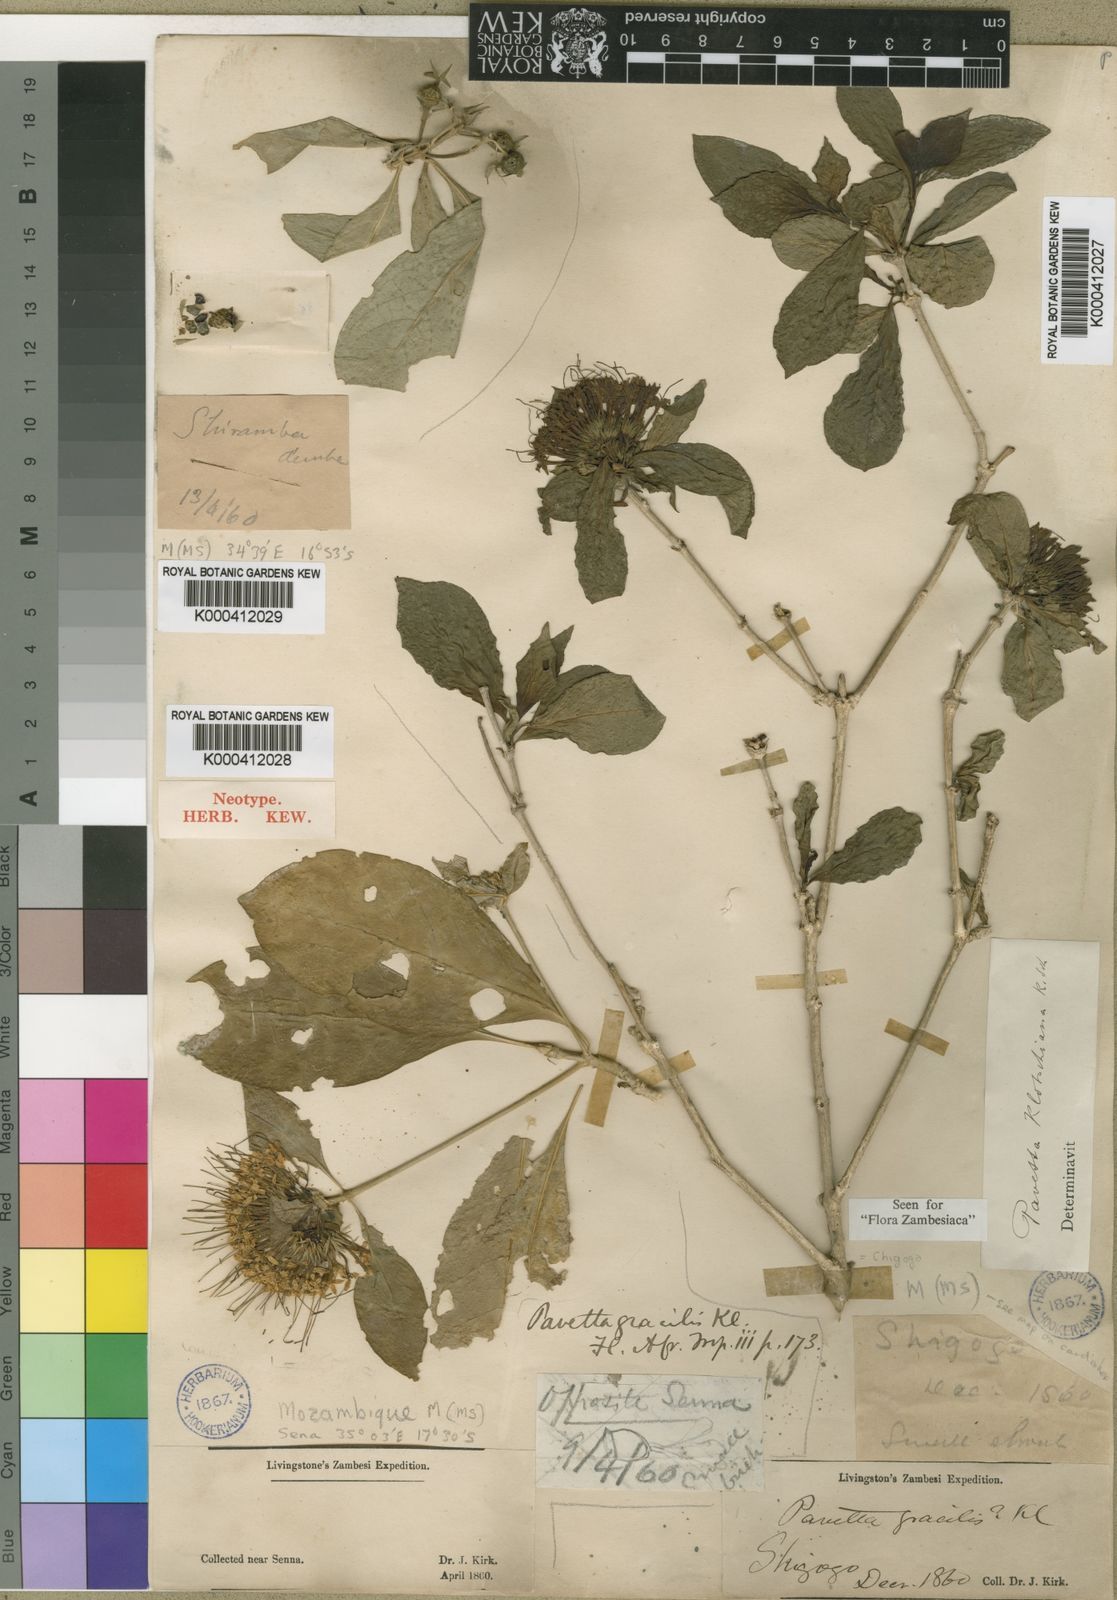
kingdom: Plantae
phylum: Tracheophyta
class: Magnoliopsida
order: Gentianales
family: Rubiaceae
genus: Pavetta
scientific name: Pavetta klotzschiana
